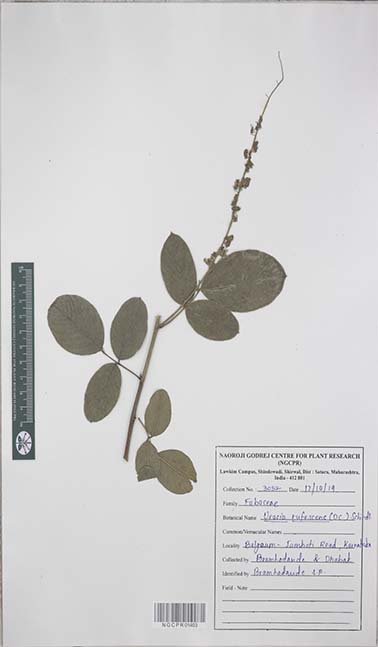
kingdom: Plantae
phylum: Tracheophyta
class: Magnoliopsida
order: Fabales
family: Fabaceae
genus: Uraria
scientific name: Uraria rufescens
